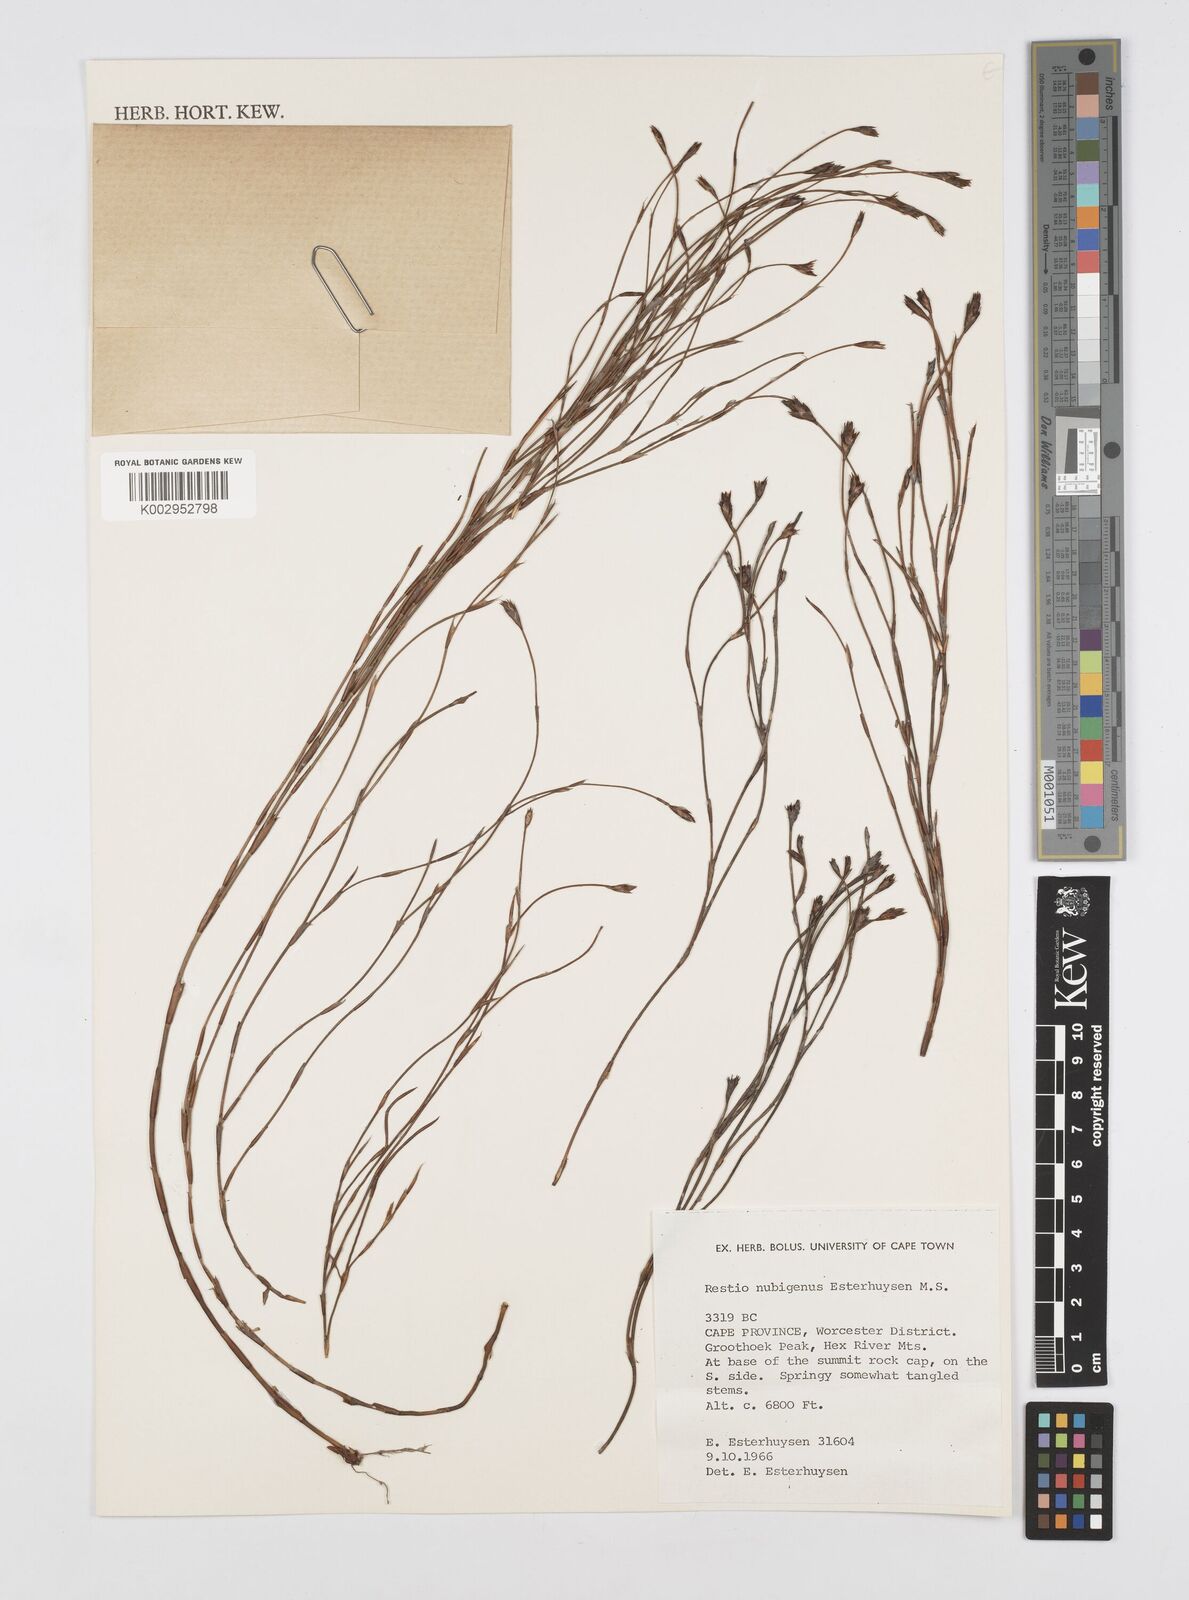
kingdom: Plantae
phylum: Tracheophyta
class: Liliopsida
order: Poales
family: Restionaceae
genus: Restio
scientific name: Restio nubigenus
